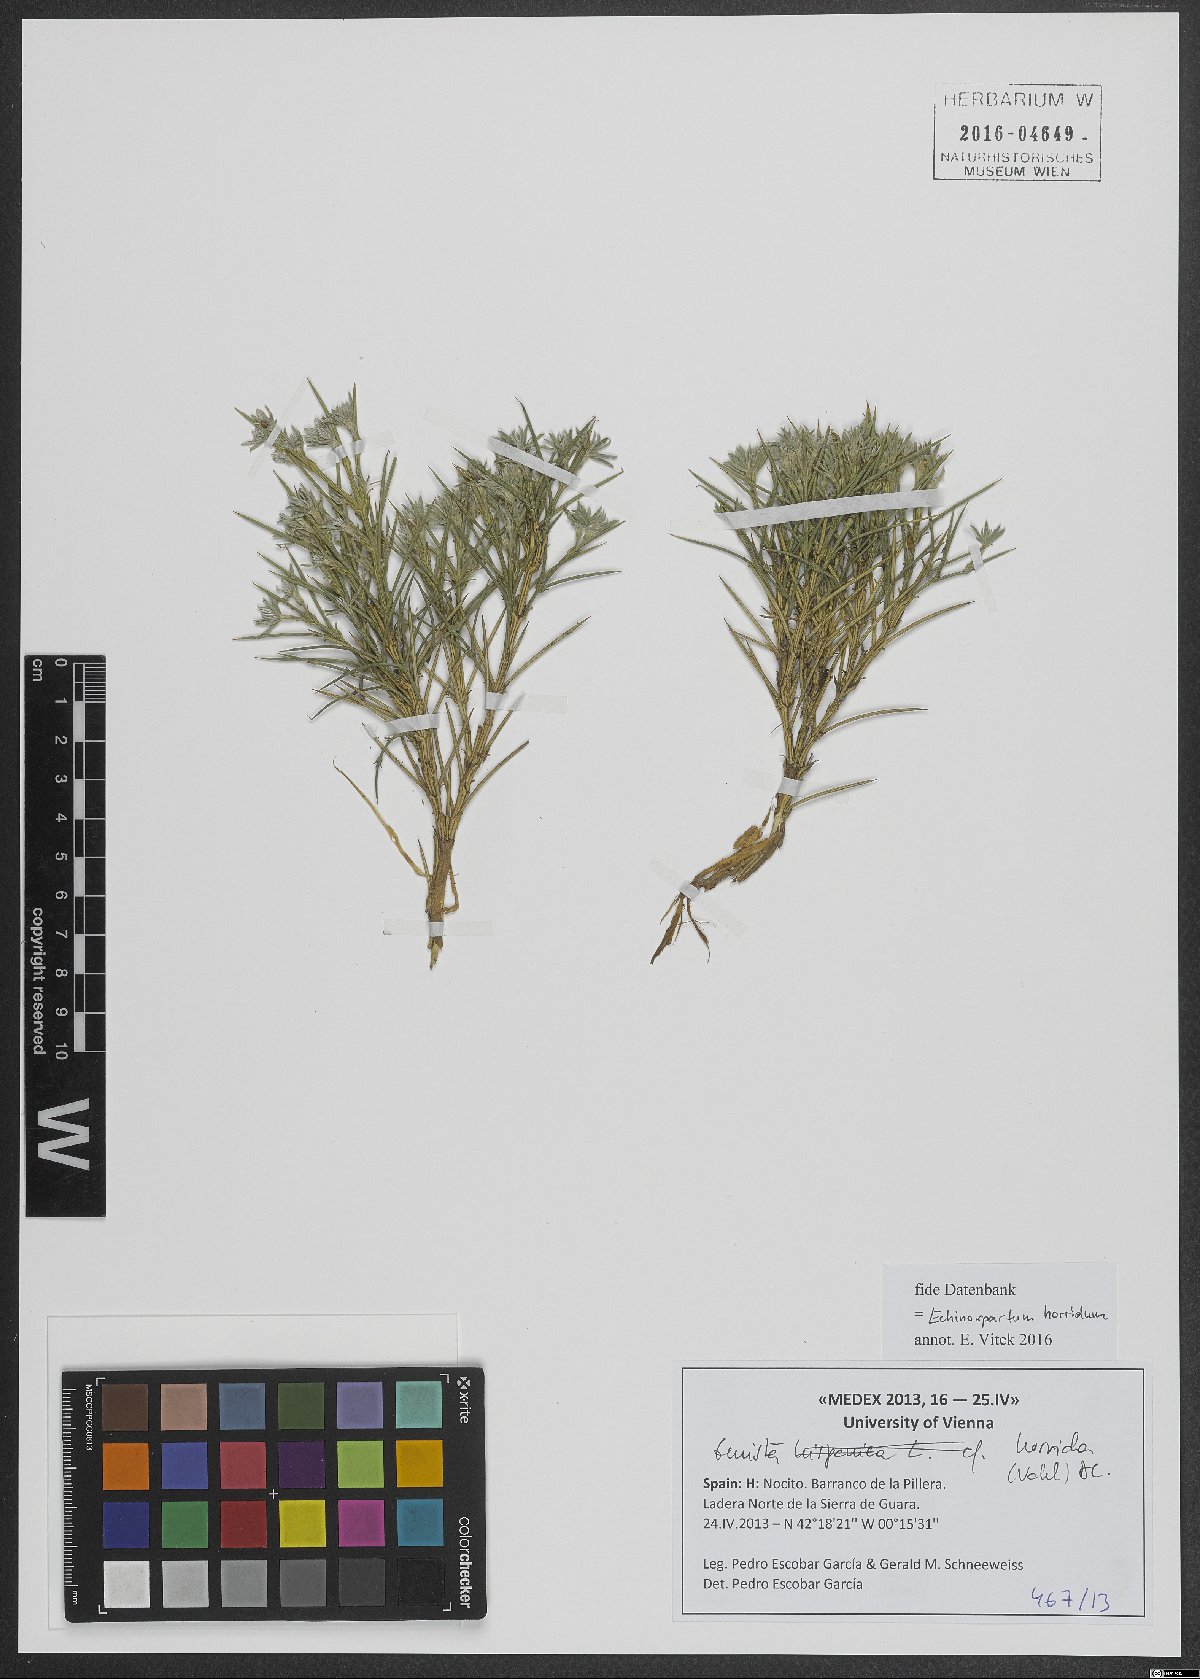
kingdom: Plantae
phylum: Tracheophyta
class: Magnoliopsida
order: Fabales
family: Fabaceae
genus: Echinospartum
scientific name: Echinospartum horridum
